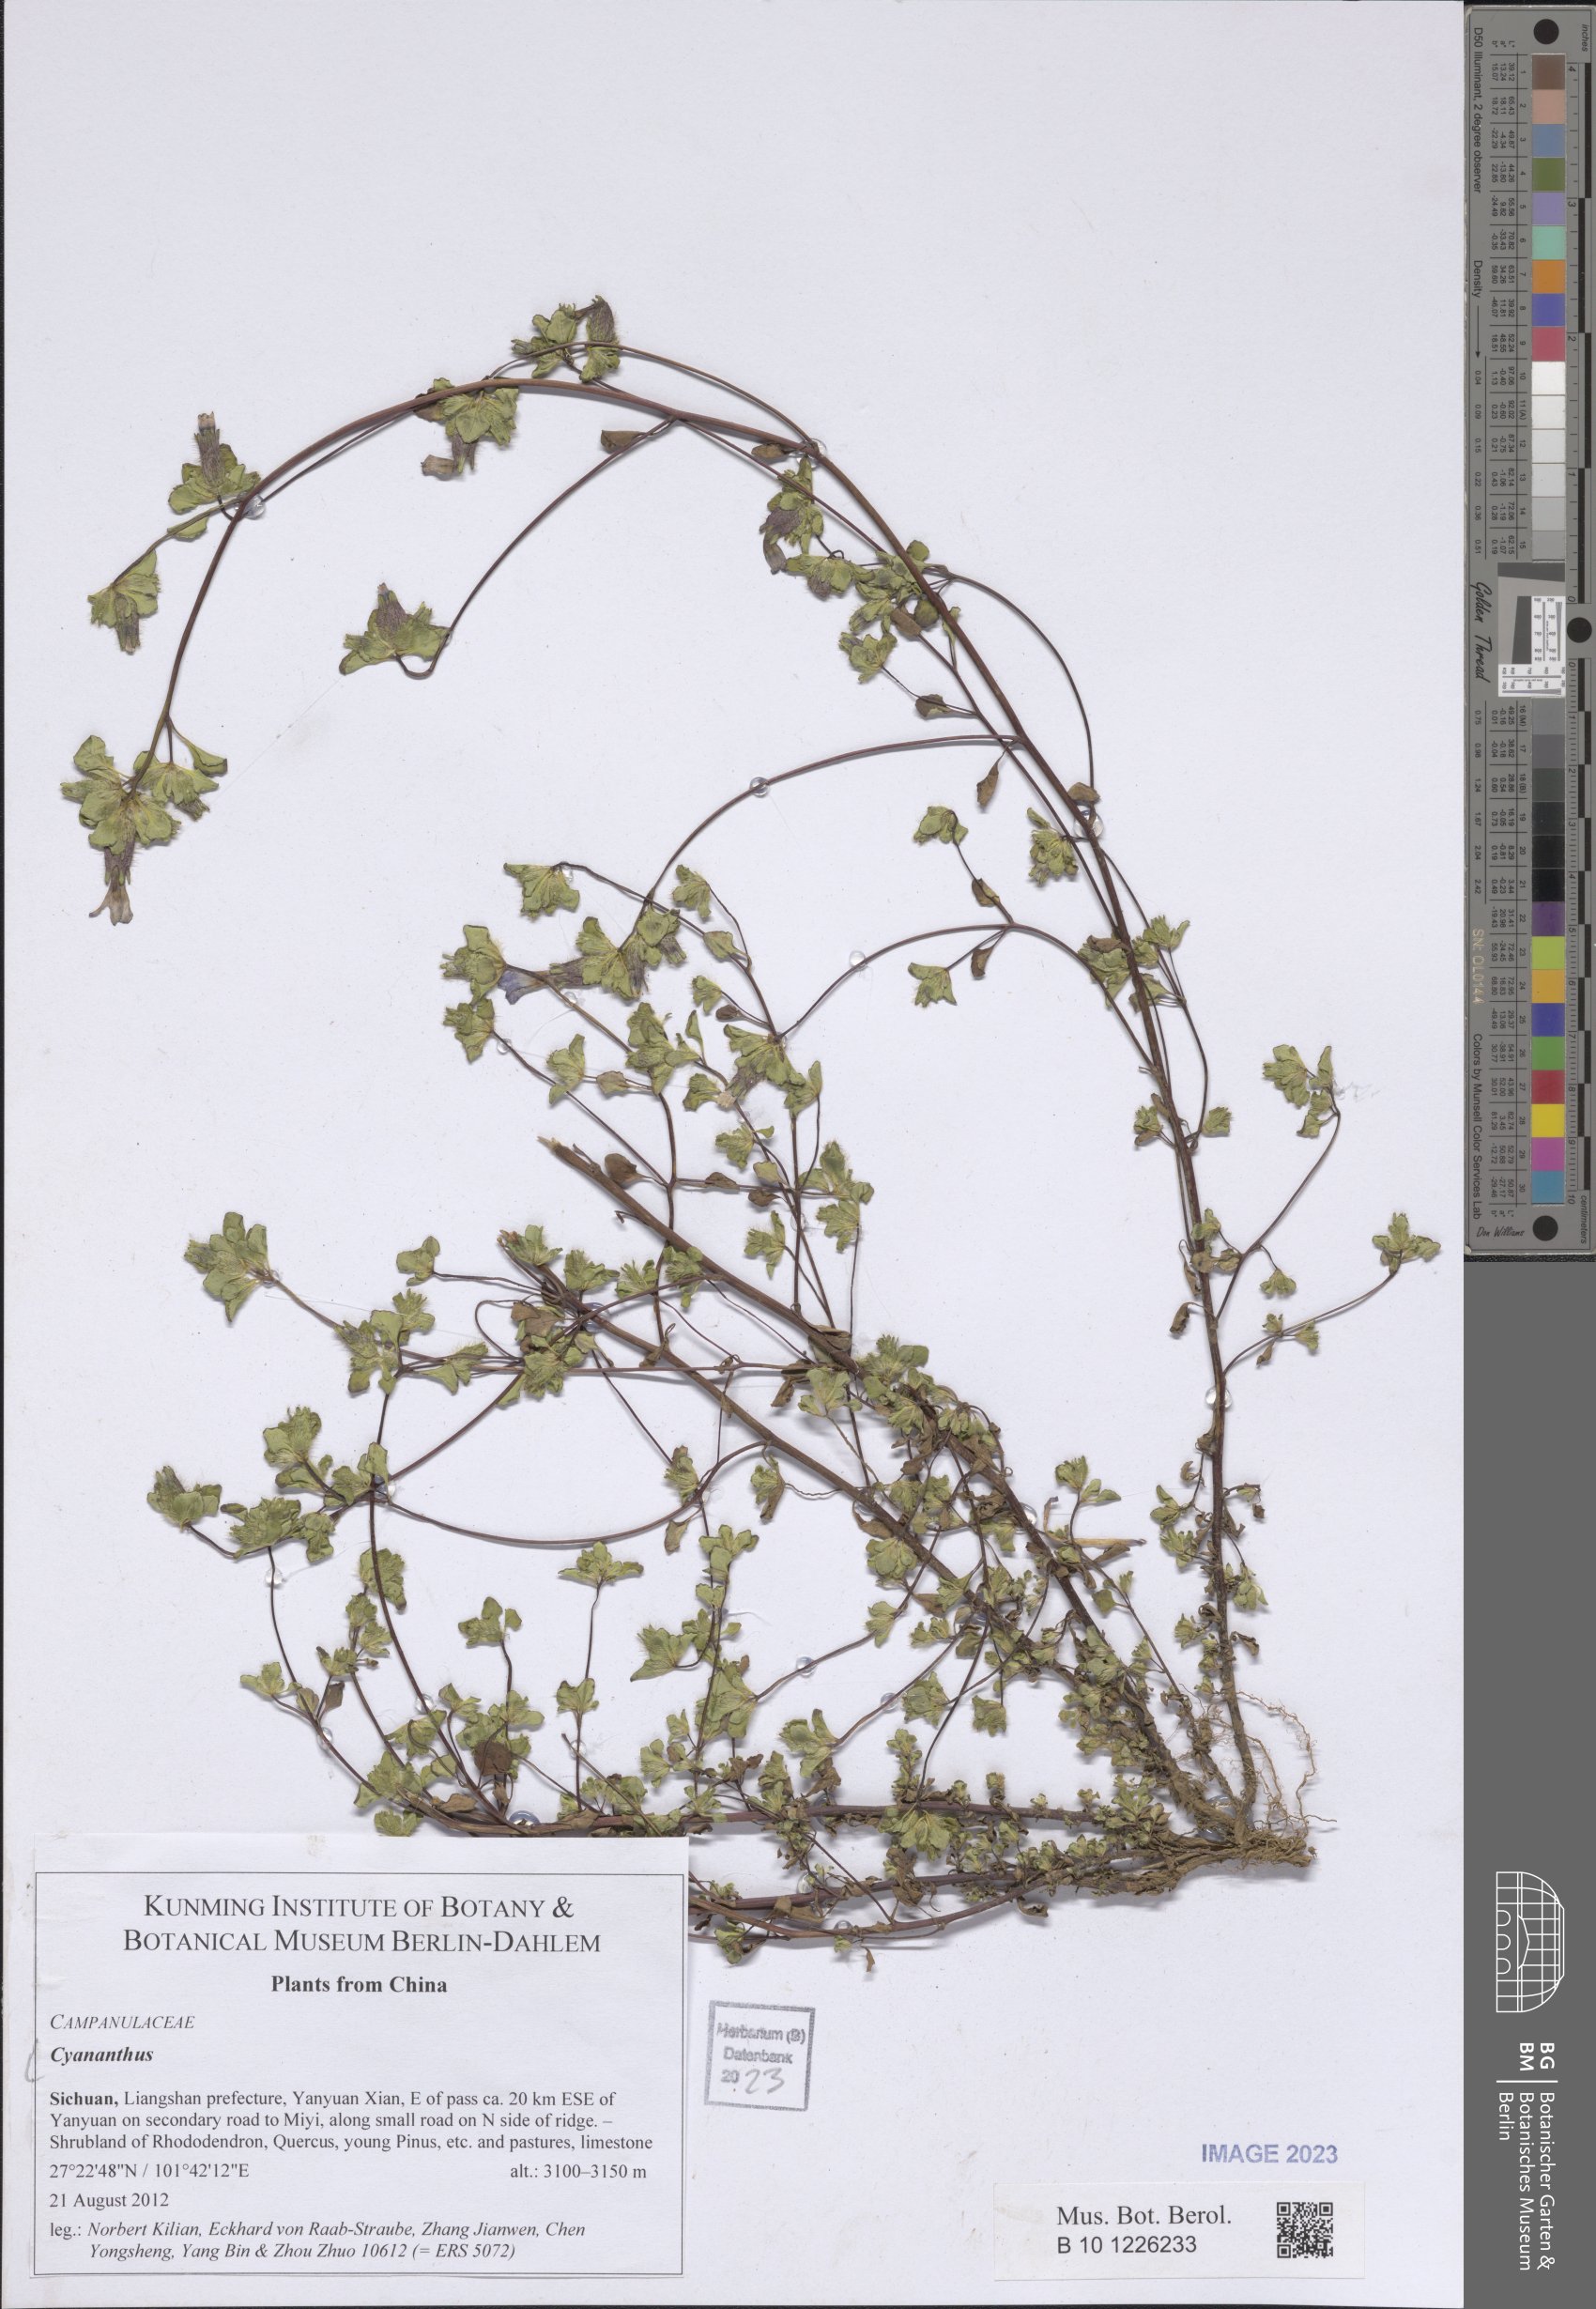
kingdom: Plantae
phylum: Tracheophyta
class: Magnoliopsida
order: Asterales
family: Campanulaceae
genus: Cyananthus
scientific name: Cyananthus
